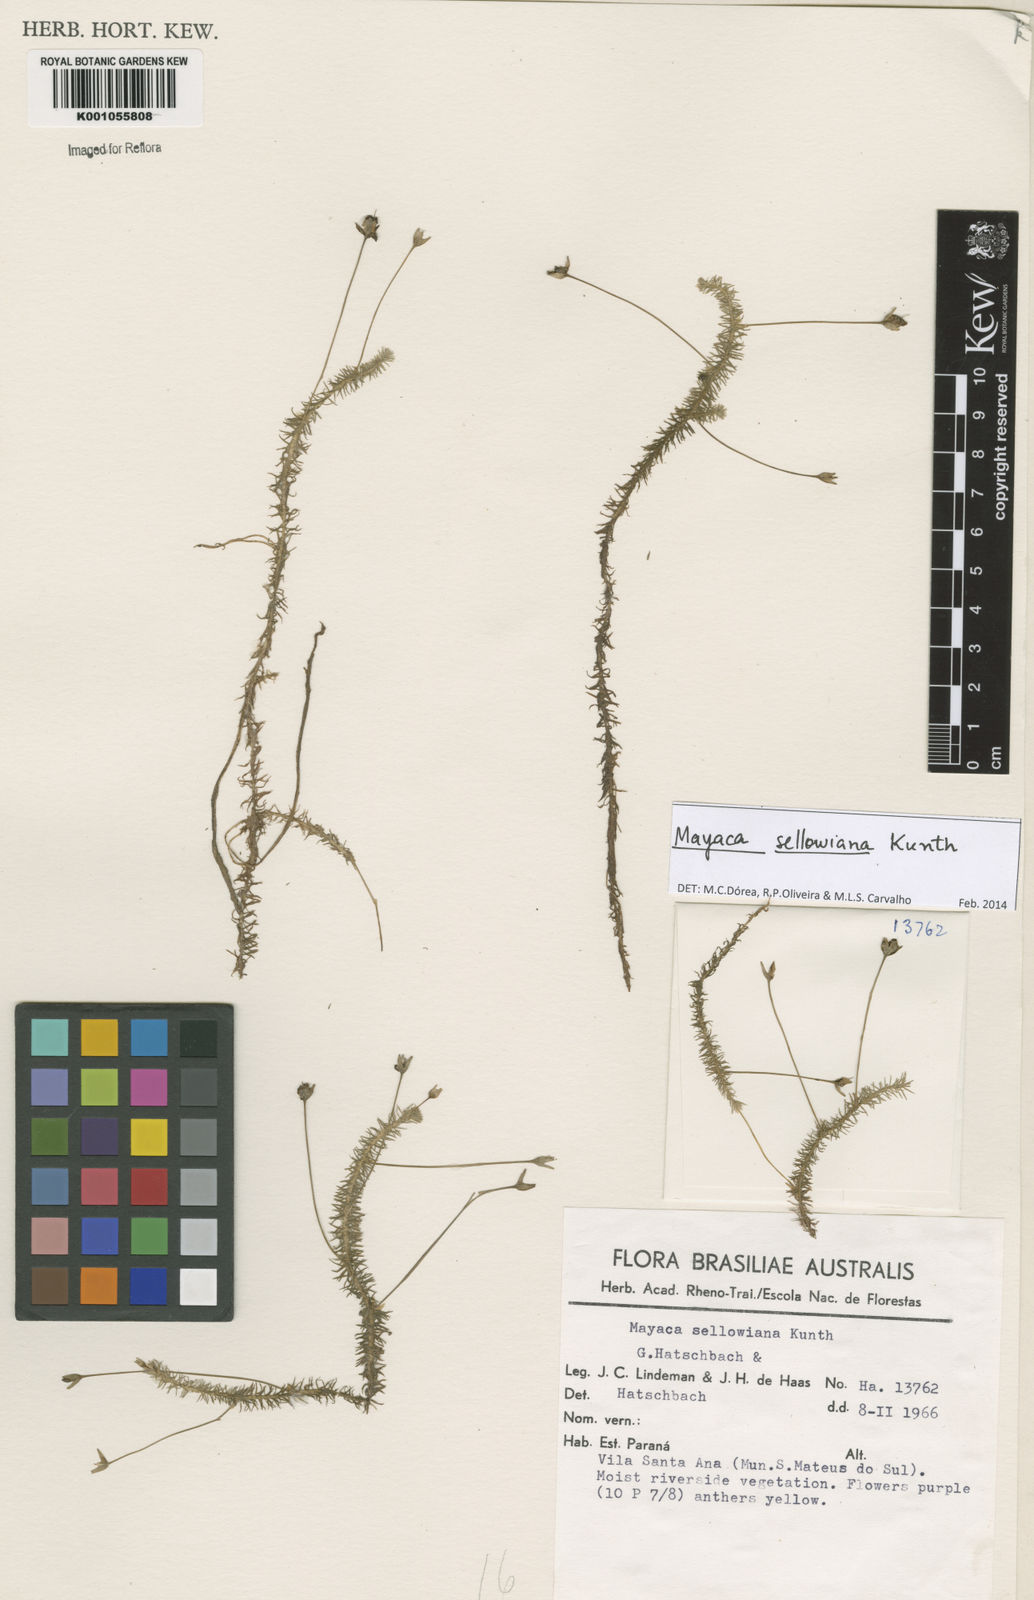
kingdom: Plantae
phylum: Tracheophyta
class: Liliopsida
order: Poales
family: Mayacaceae
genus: Mayaca
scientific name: Mayaca sellowiana
